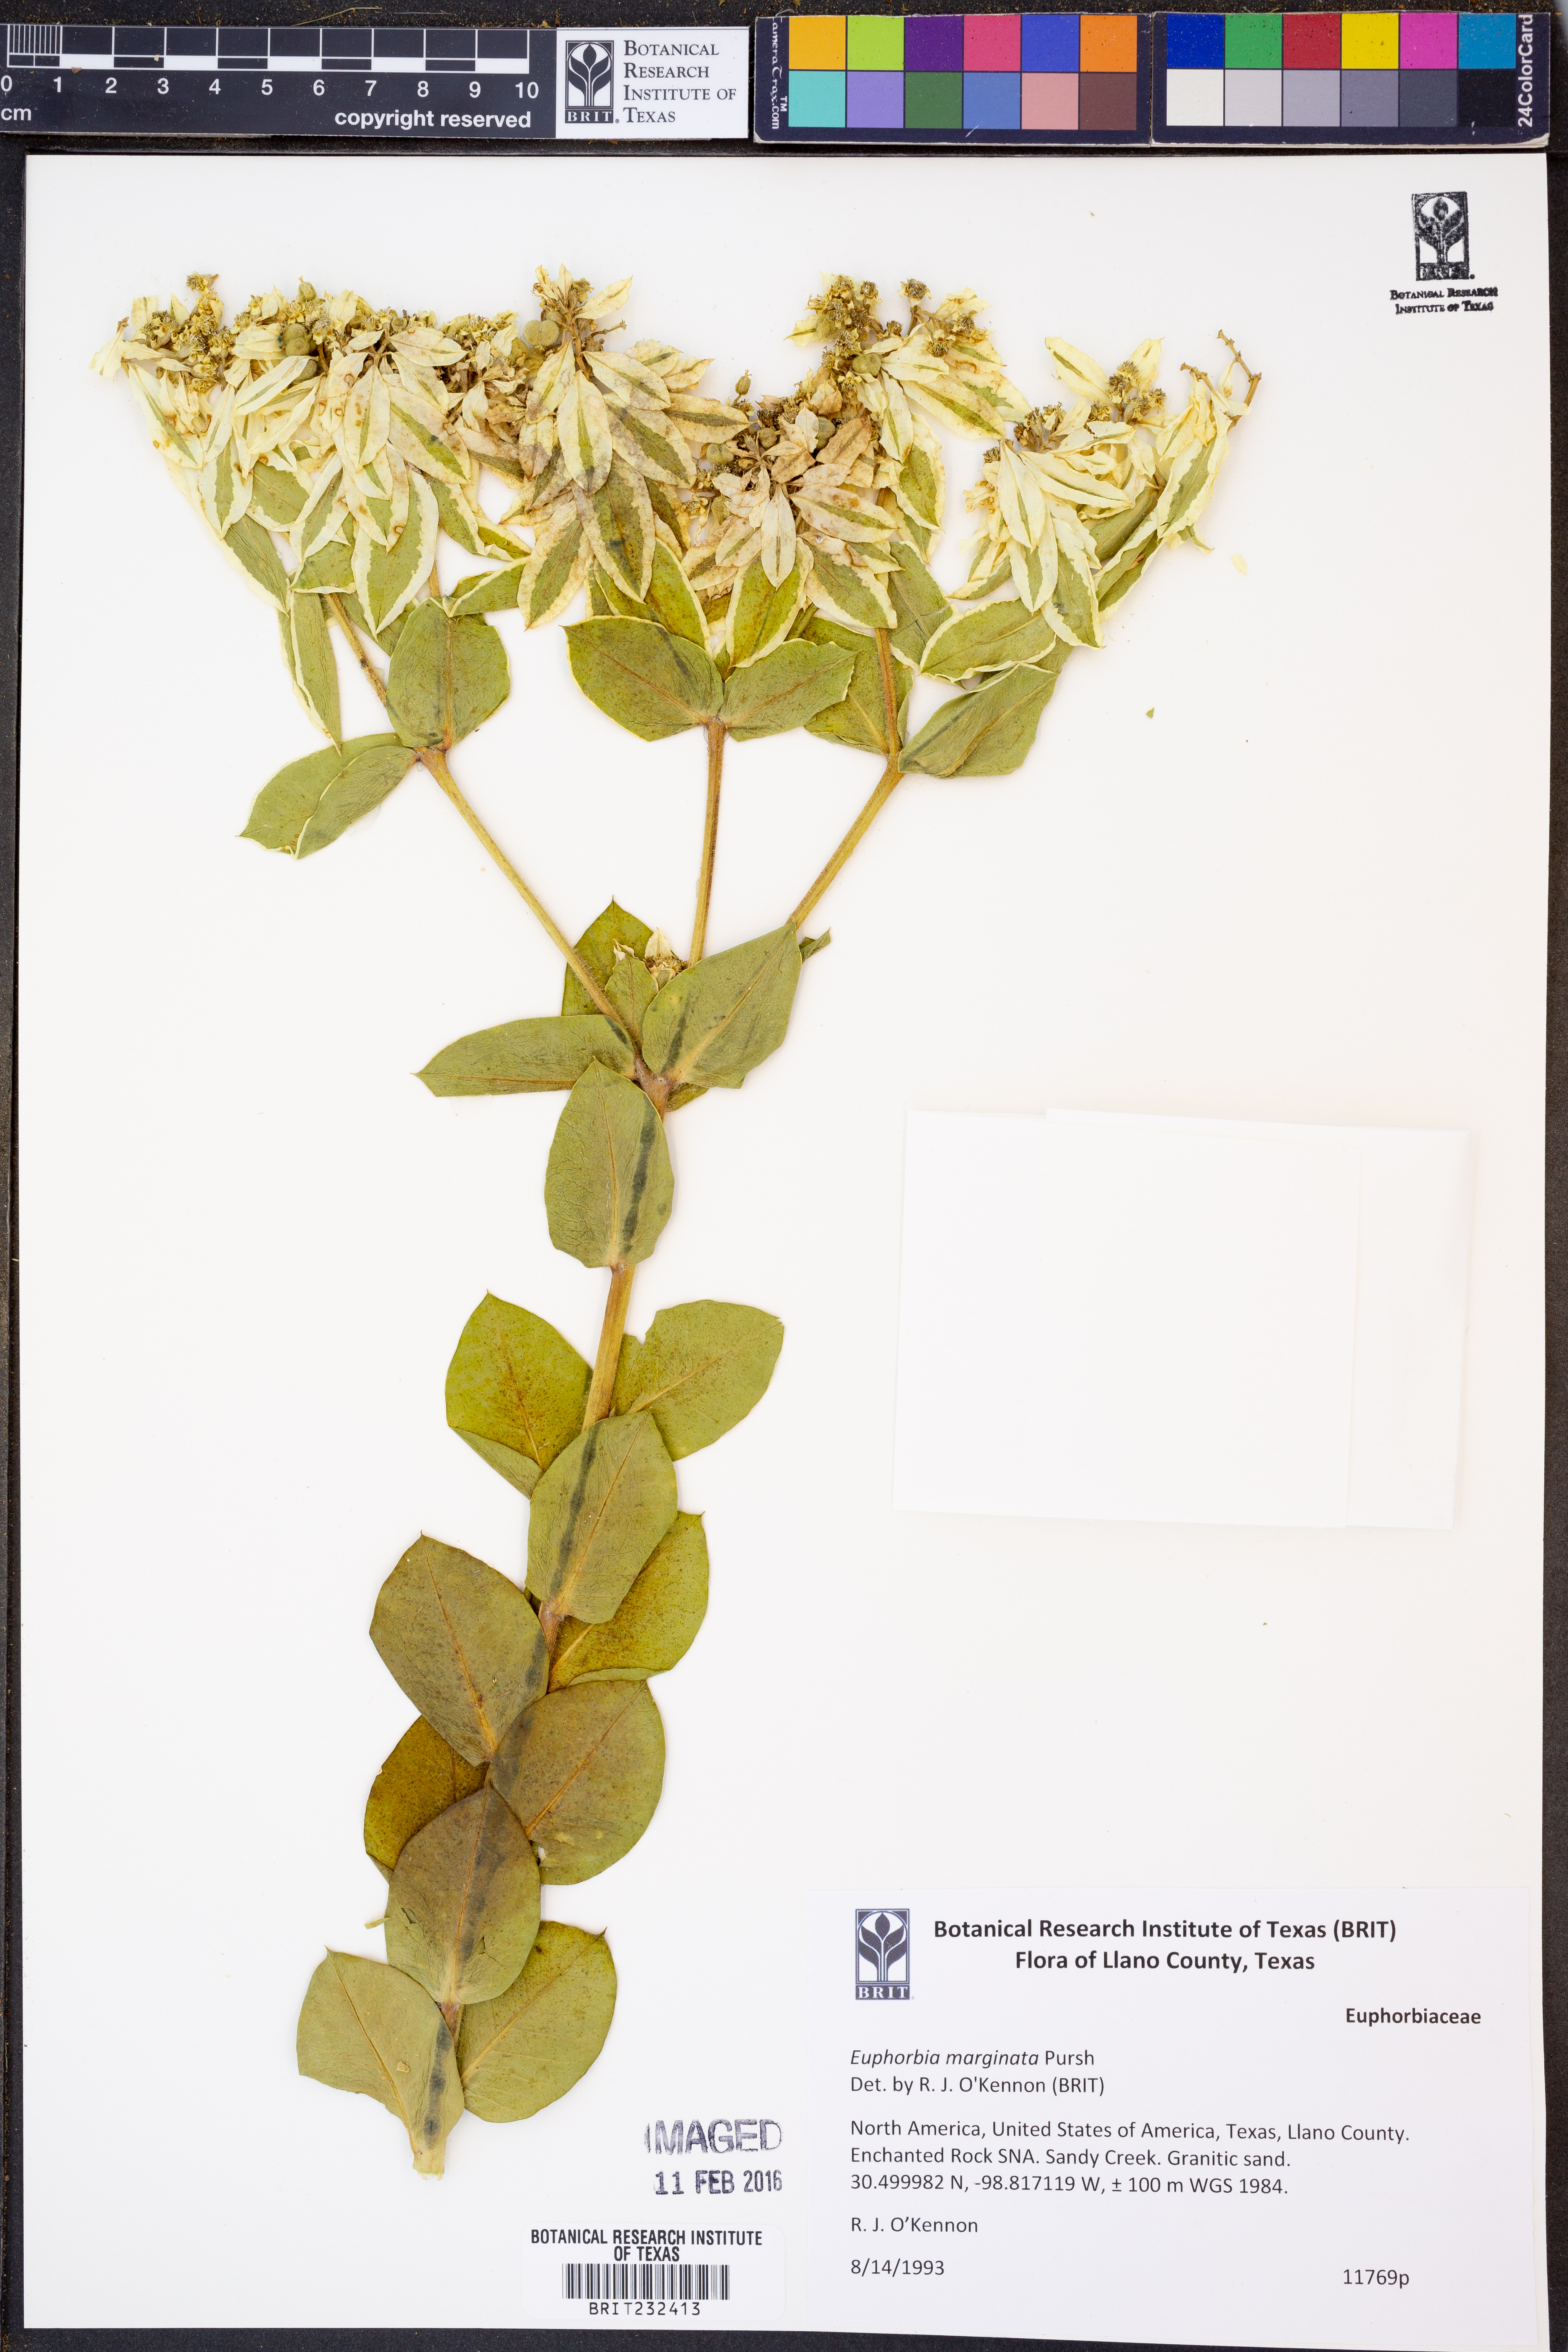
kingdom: Plantae
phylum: Tracheophyta
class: Magnoliopsida
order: Malpighiales
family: Euphorbiaceae
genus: Euphorbia
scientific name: Euphorbia marginata
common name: Ghostweed
